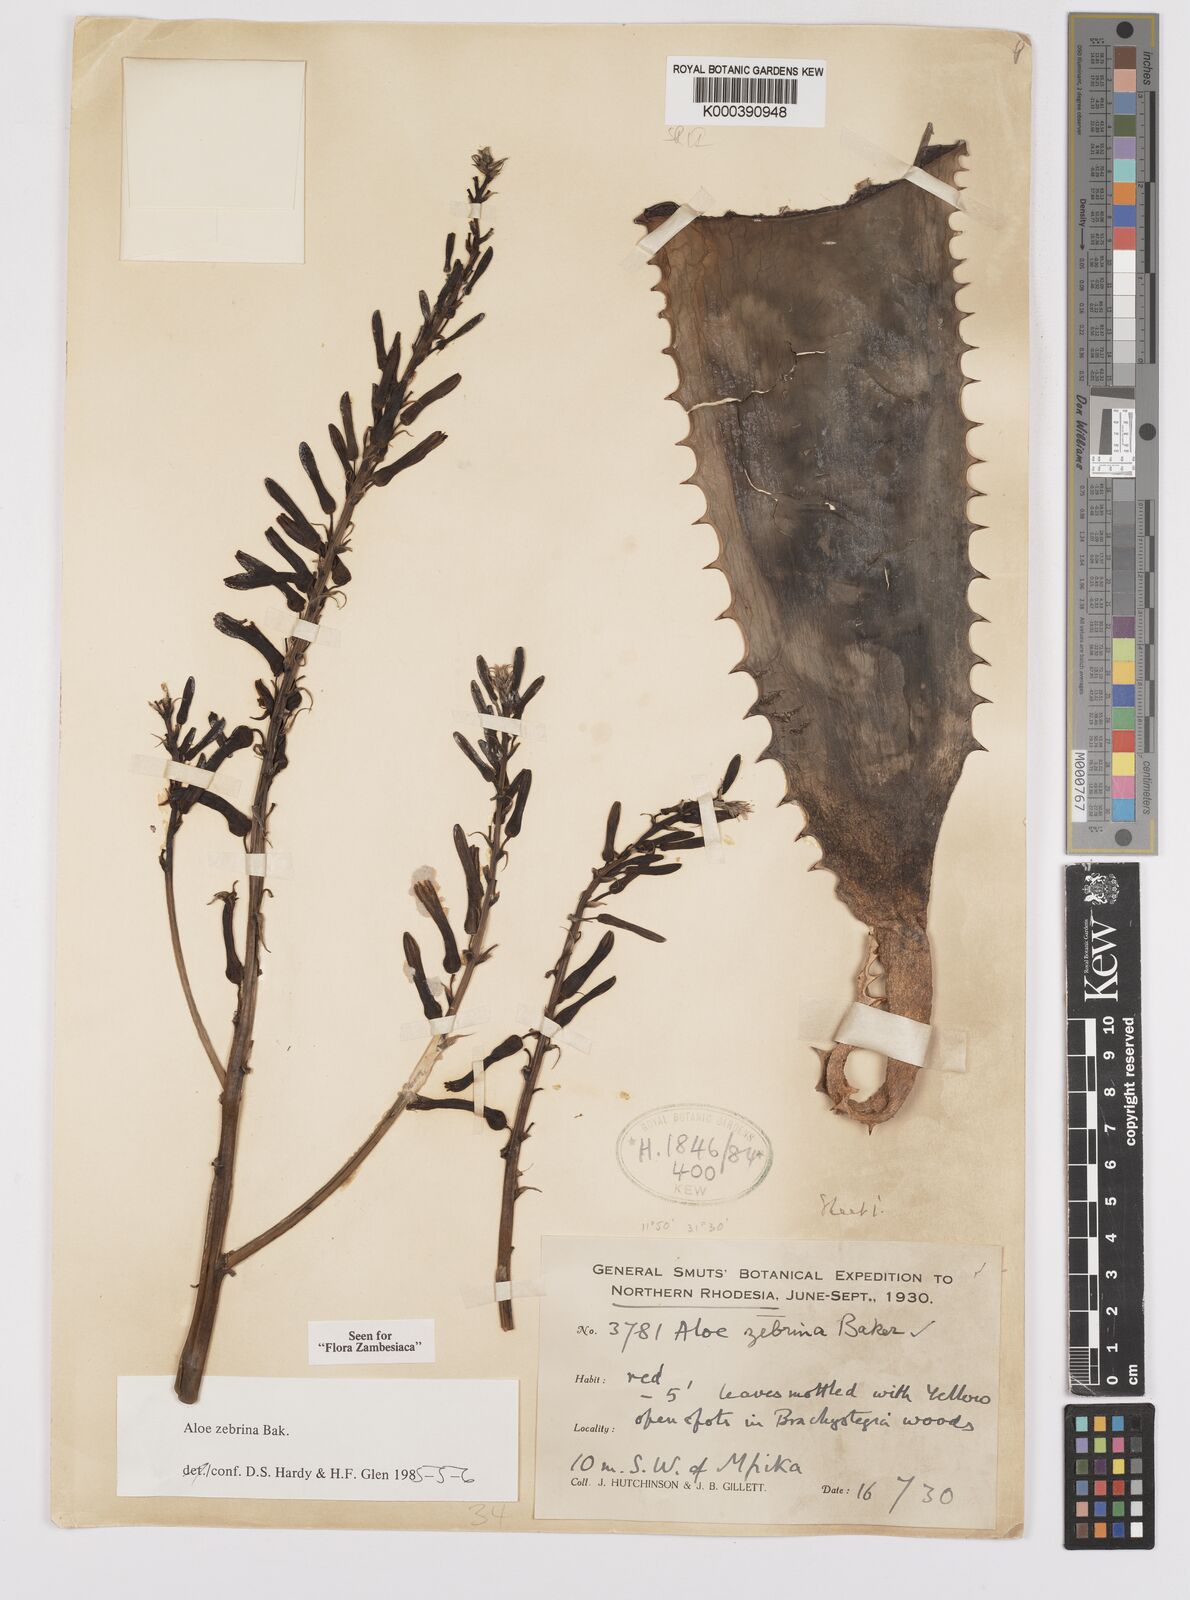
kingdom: Plantae
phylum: Tracheophyta
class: Liliopsida
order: Asparagales
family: Asphodelaceae
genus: Aloe
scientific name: Aloe zebrina
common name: Zebra-leaf aloe
